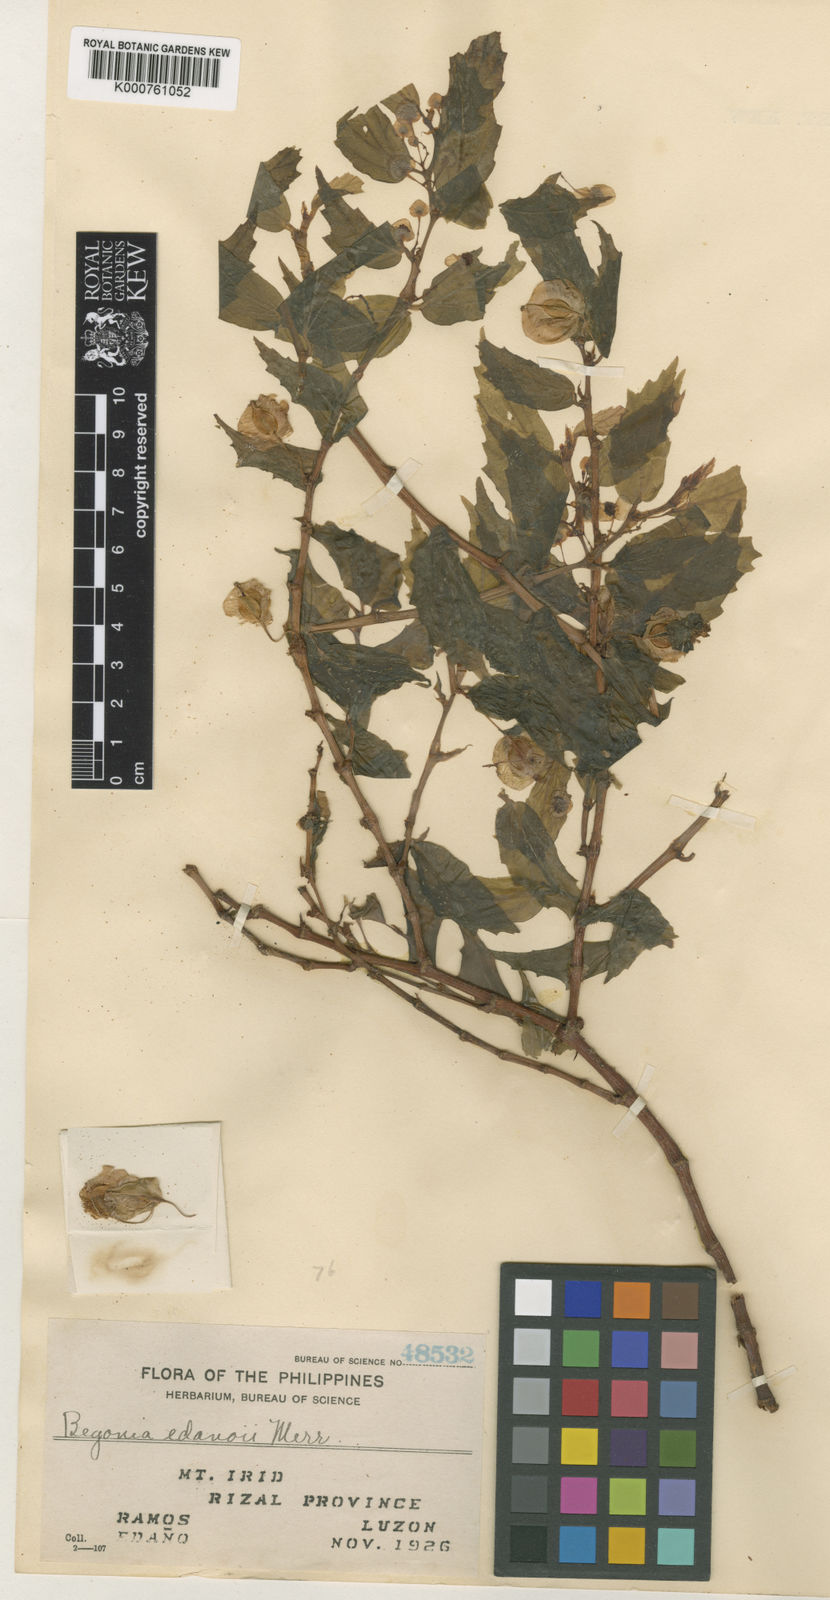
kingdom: Plantae
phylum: Tracheophyta
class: Magnoliopsida
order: Cucurbitales
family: Begoniaceae
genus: Begonia
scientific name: Begonia
